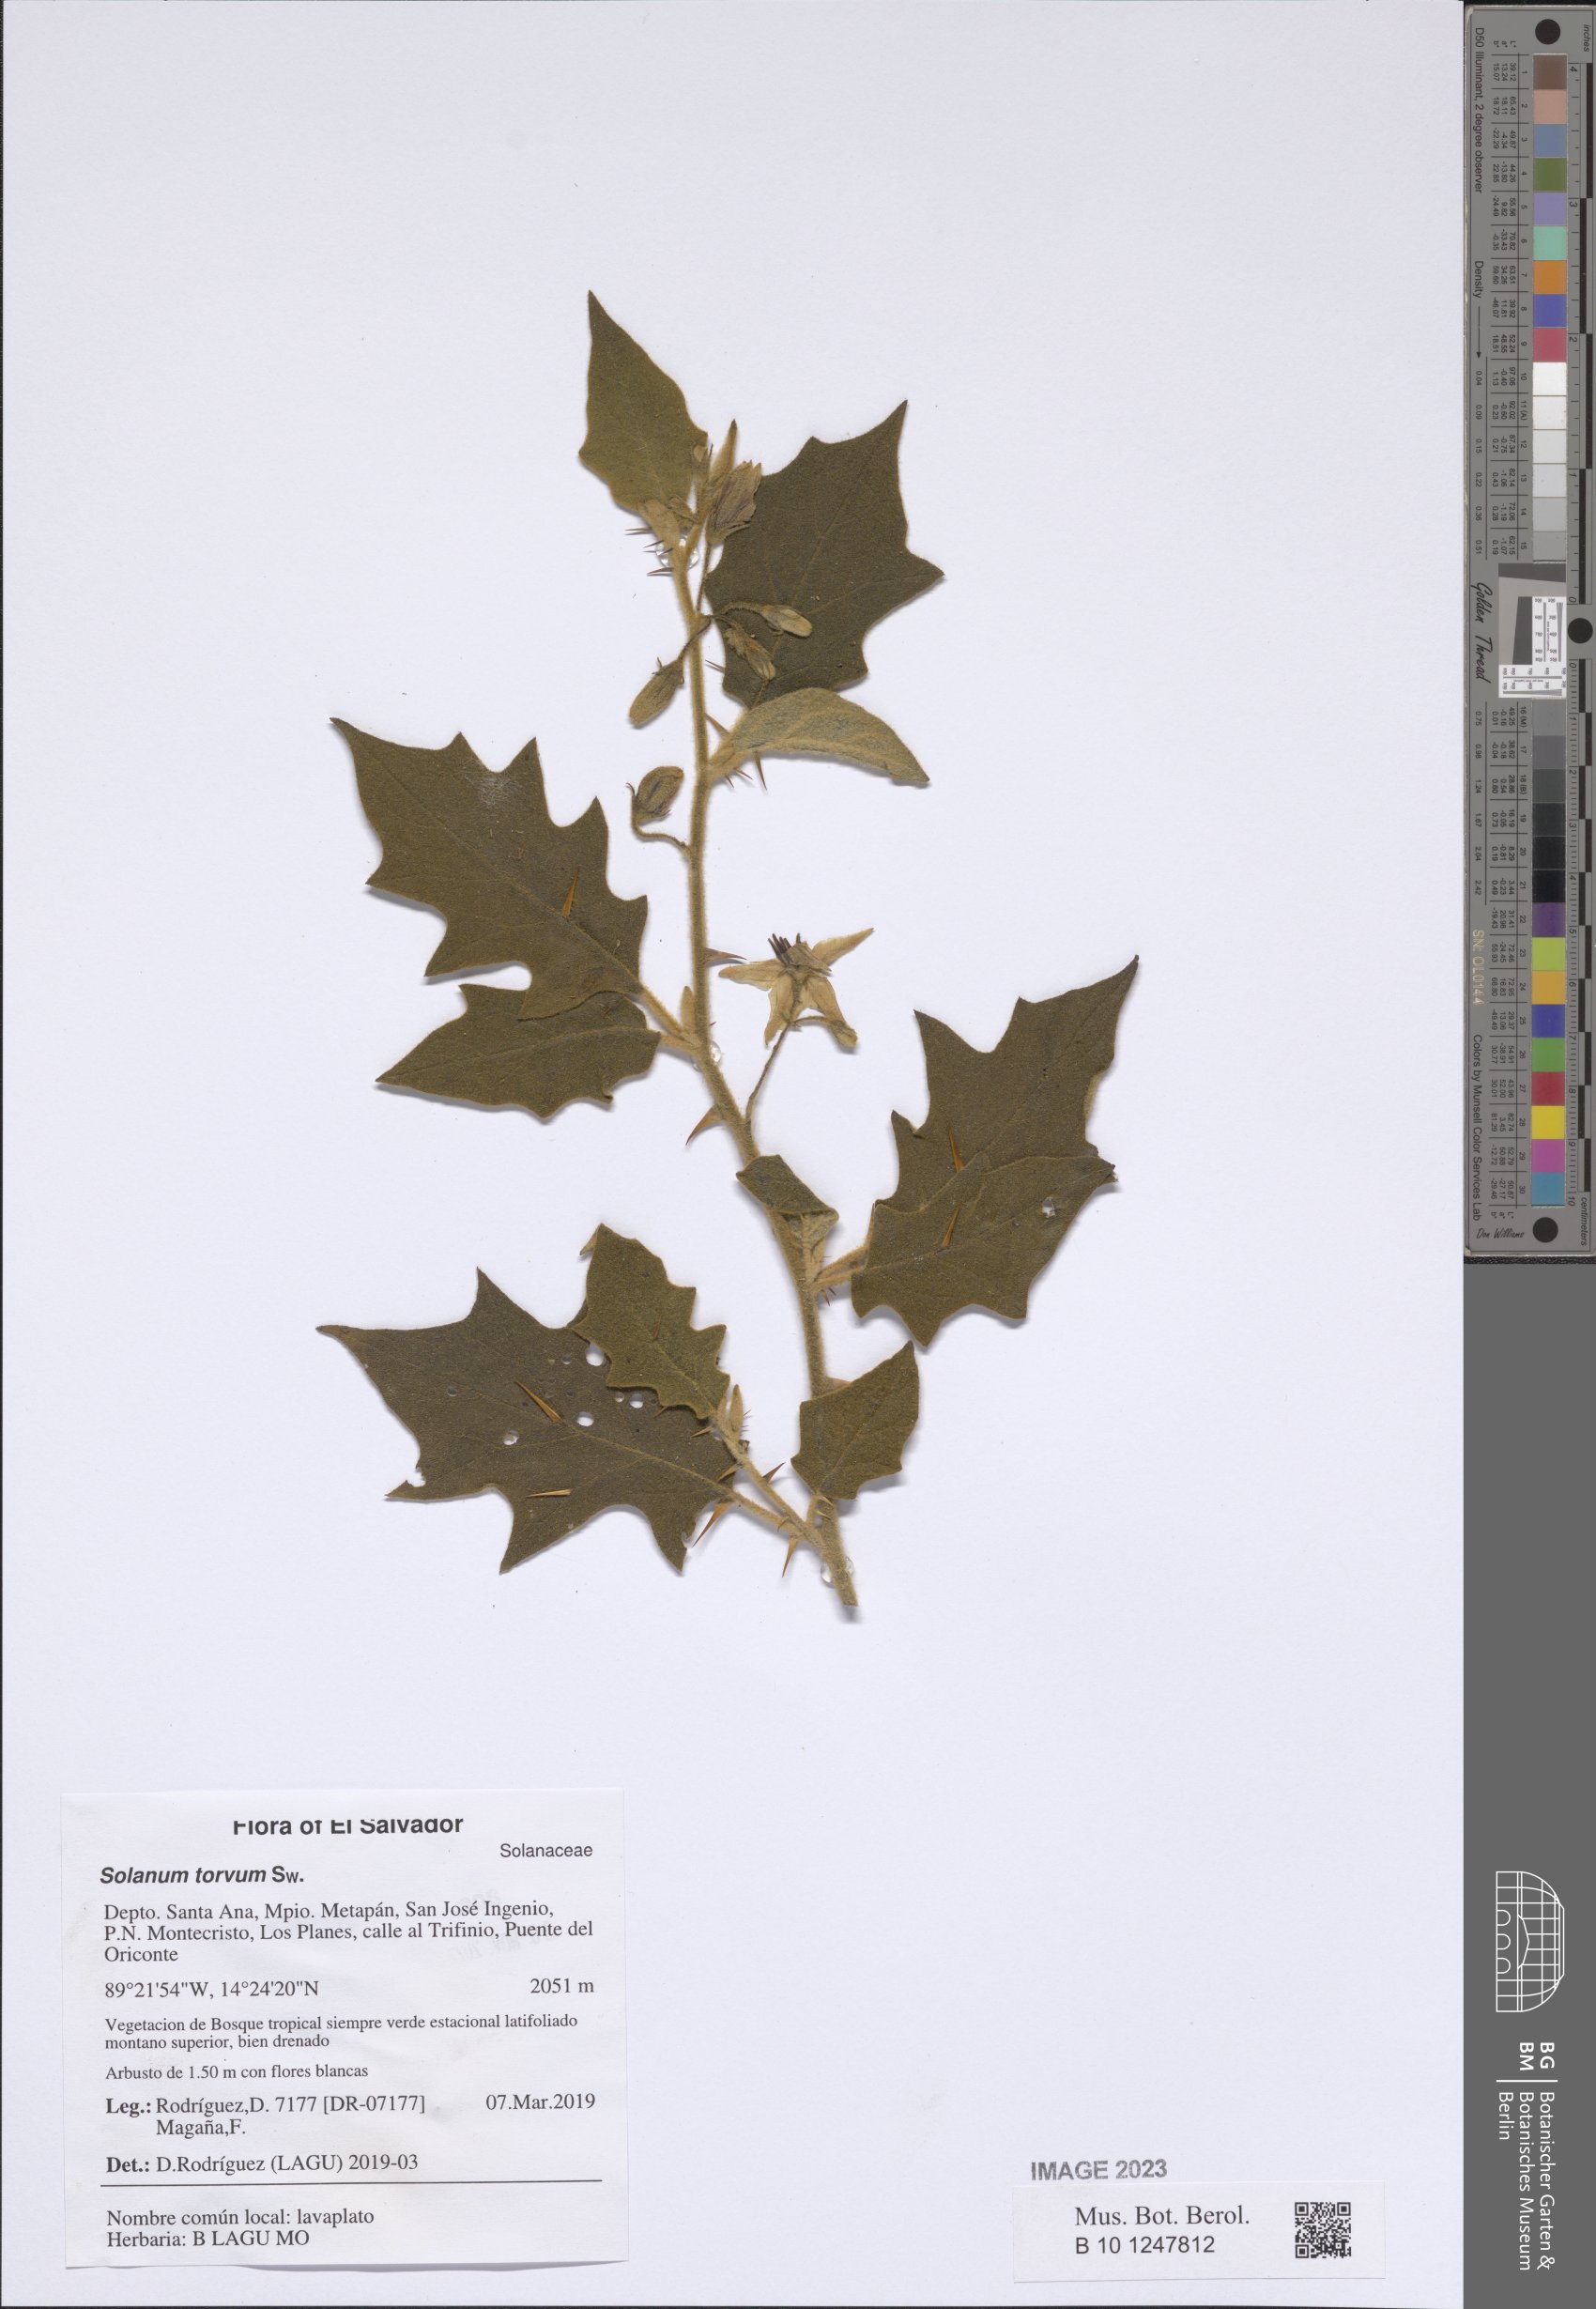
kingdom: Plantae
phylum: Tracheophyta
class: Magnoliopsida
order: Solanales
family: Solanaceae
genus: Solanum
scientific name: Solanum torvum
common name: Turkey berry
